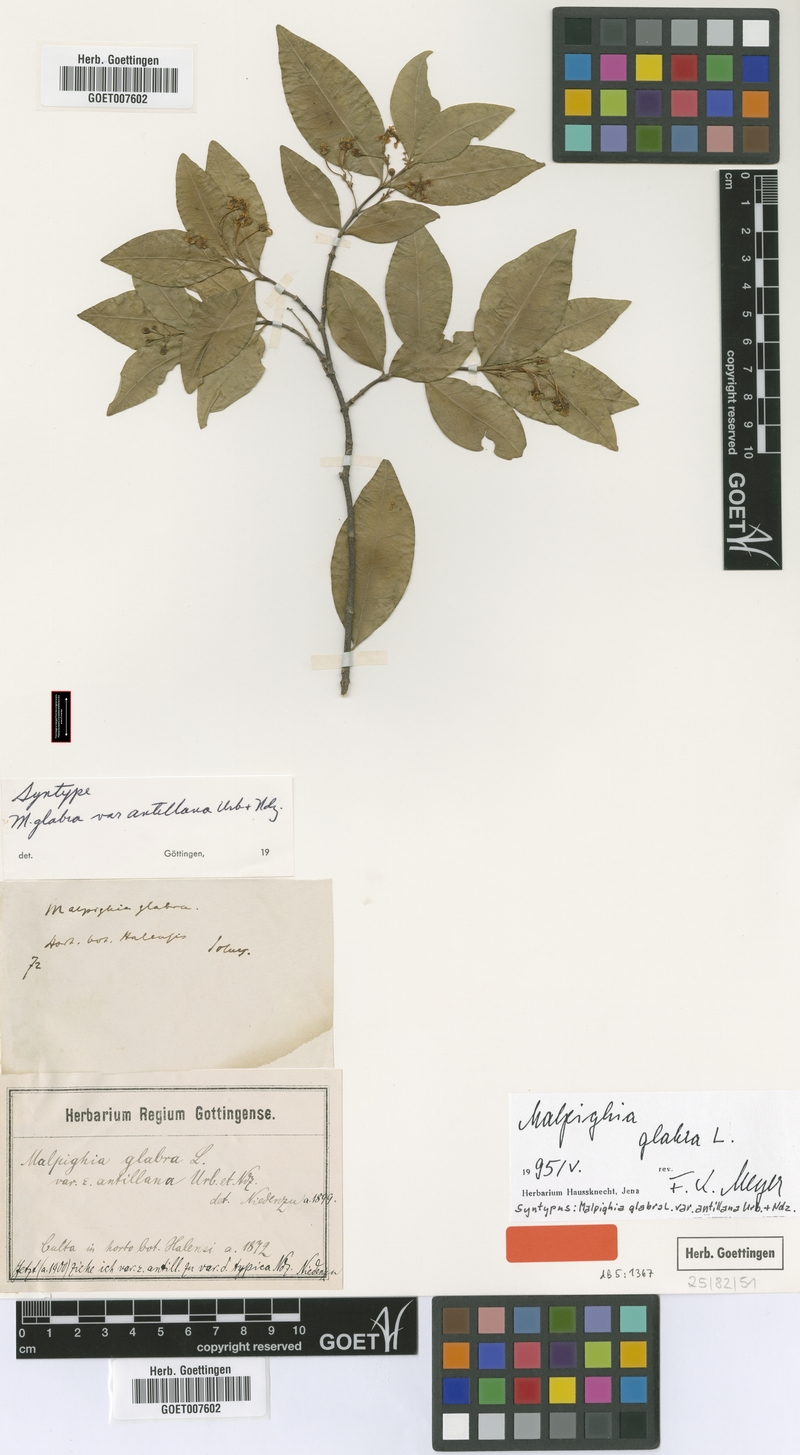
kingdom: Plantae
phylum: Tracheophyta
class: Magnoliopsida
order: Malpighiales
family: Malpighiaceae
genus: Malpighia
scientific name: Malpighia glabra
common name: Barbados cherry
